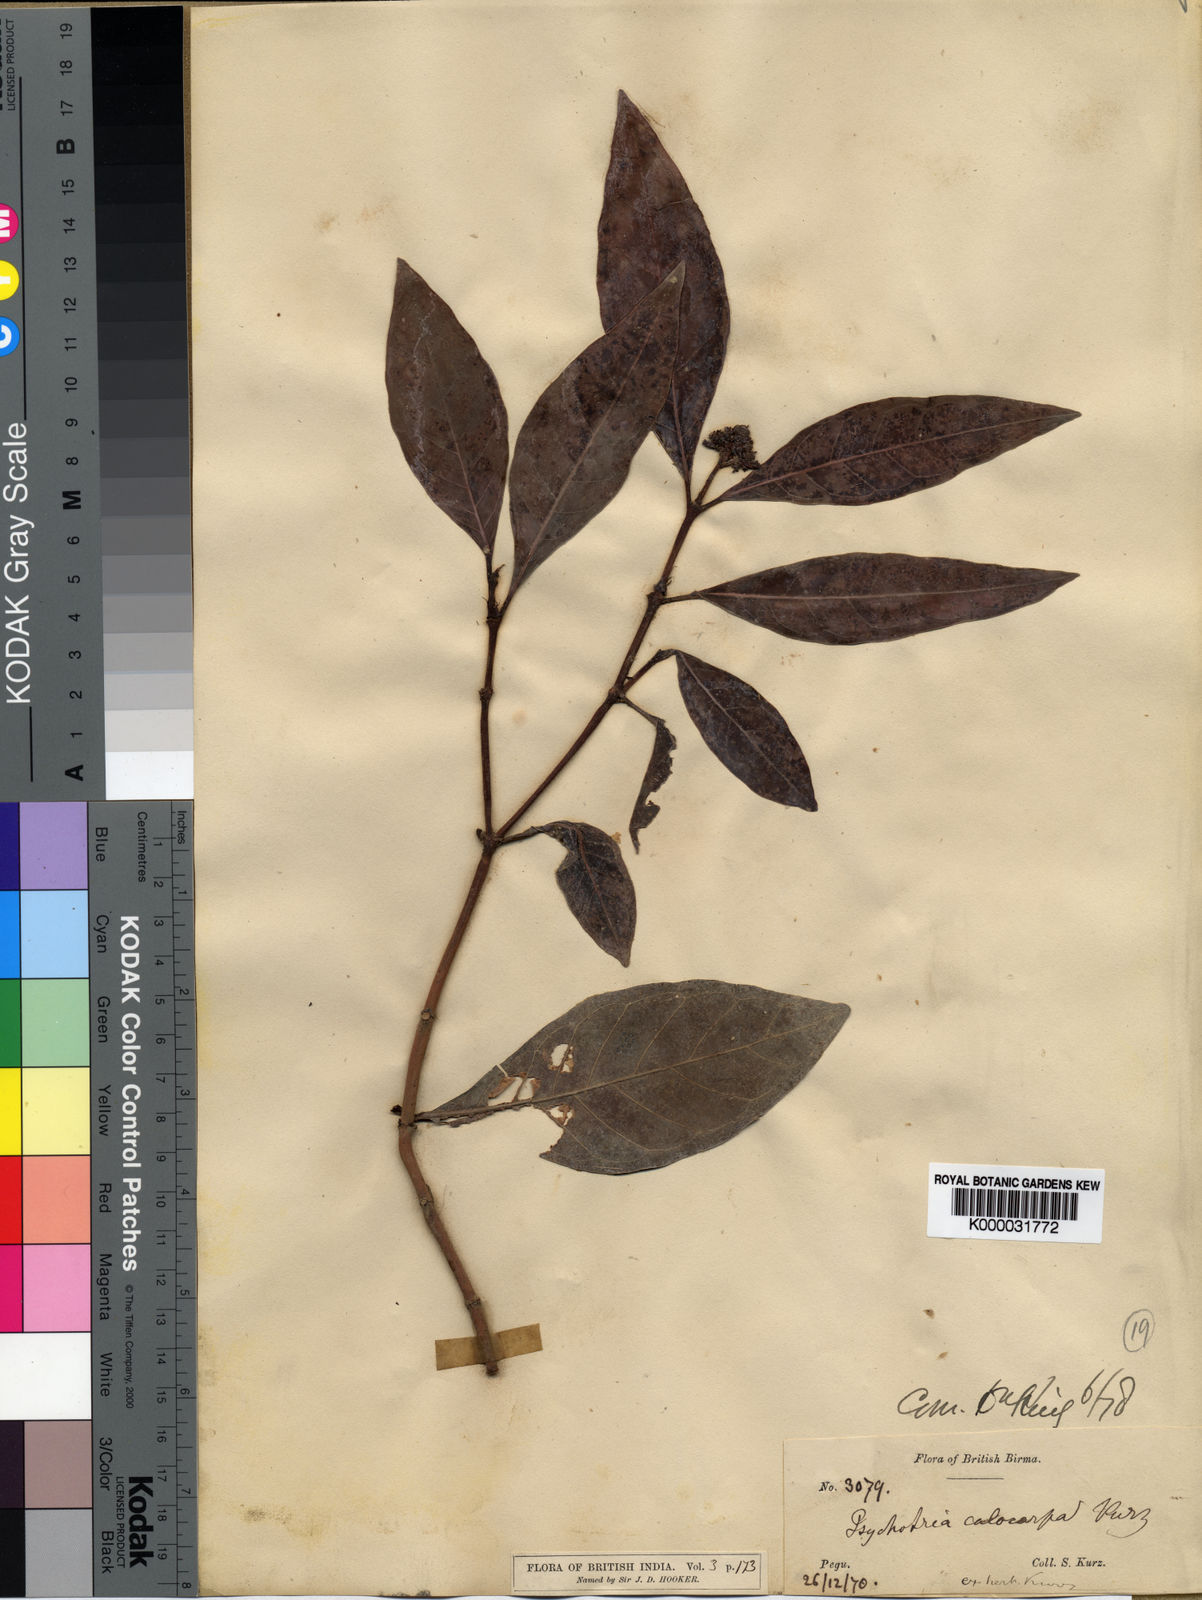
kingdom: Plantae
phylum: Tracheophyta
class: Magnoliopsida
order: Gentianales
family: Rubiaceae
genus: Psychotria
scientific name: Psychotria calocarpa
